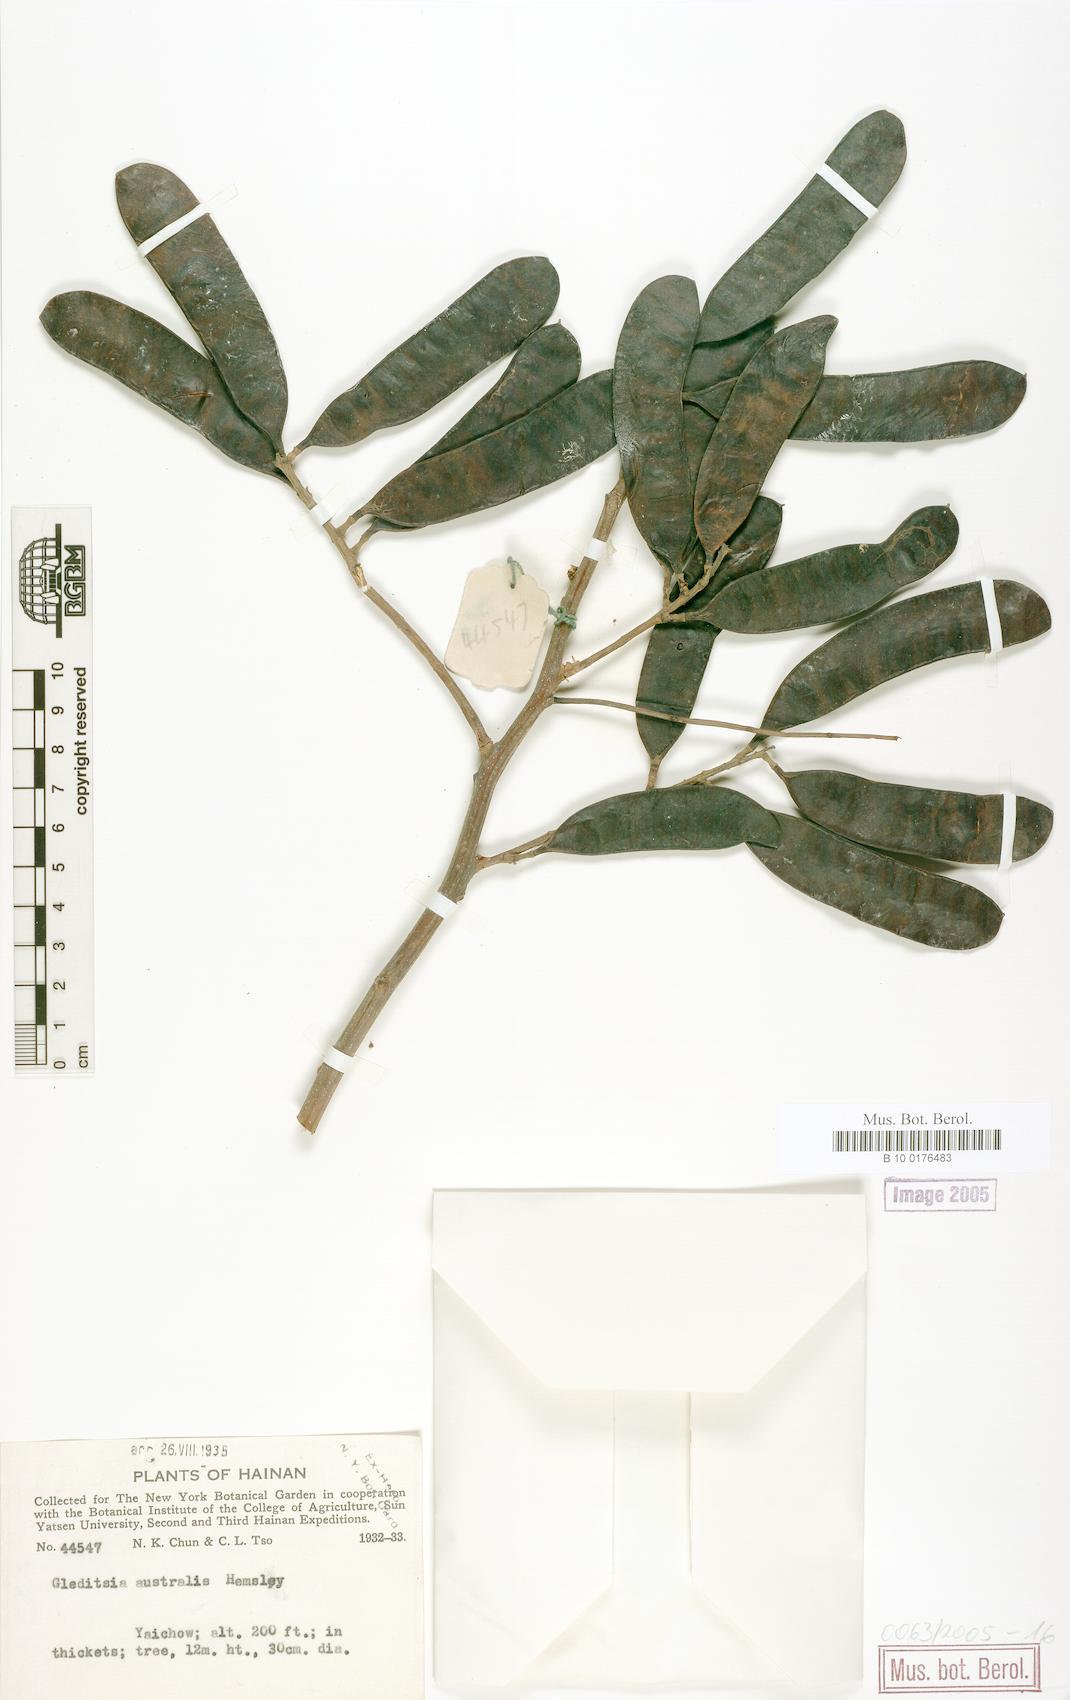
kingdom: Plantae
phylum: Tracheophyta
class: Magnoliopsida
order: Fabales
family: Fabaceae
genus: Gleditsia
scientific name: Gleditsia australis
